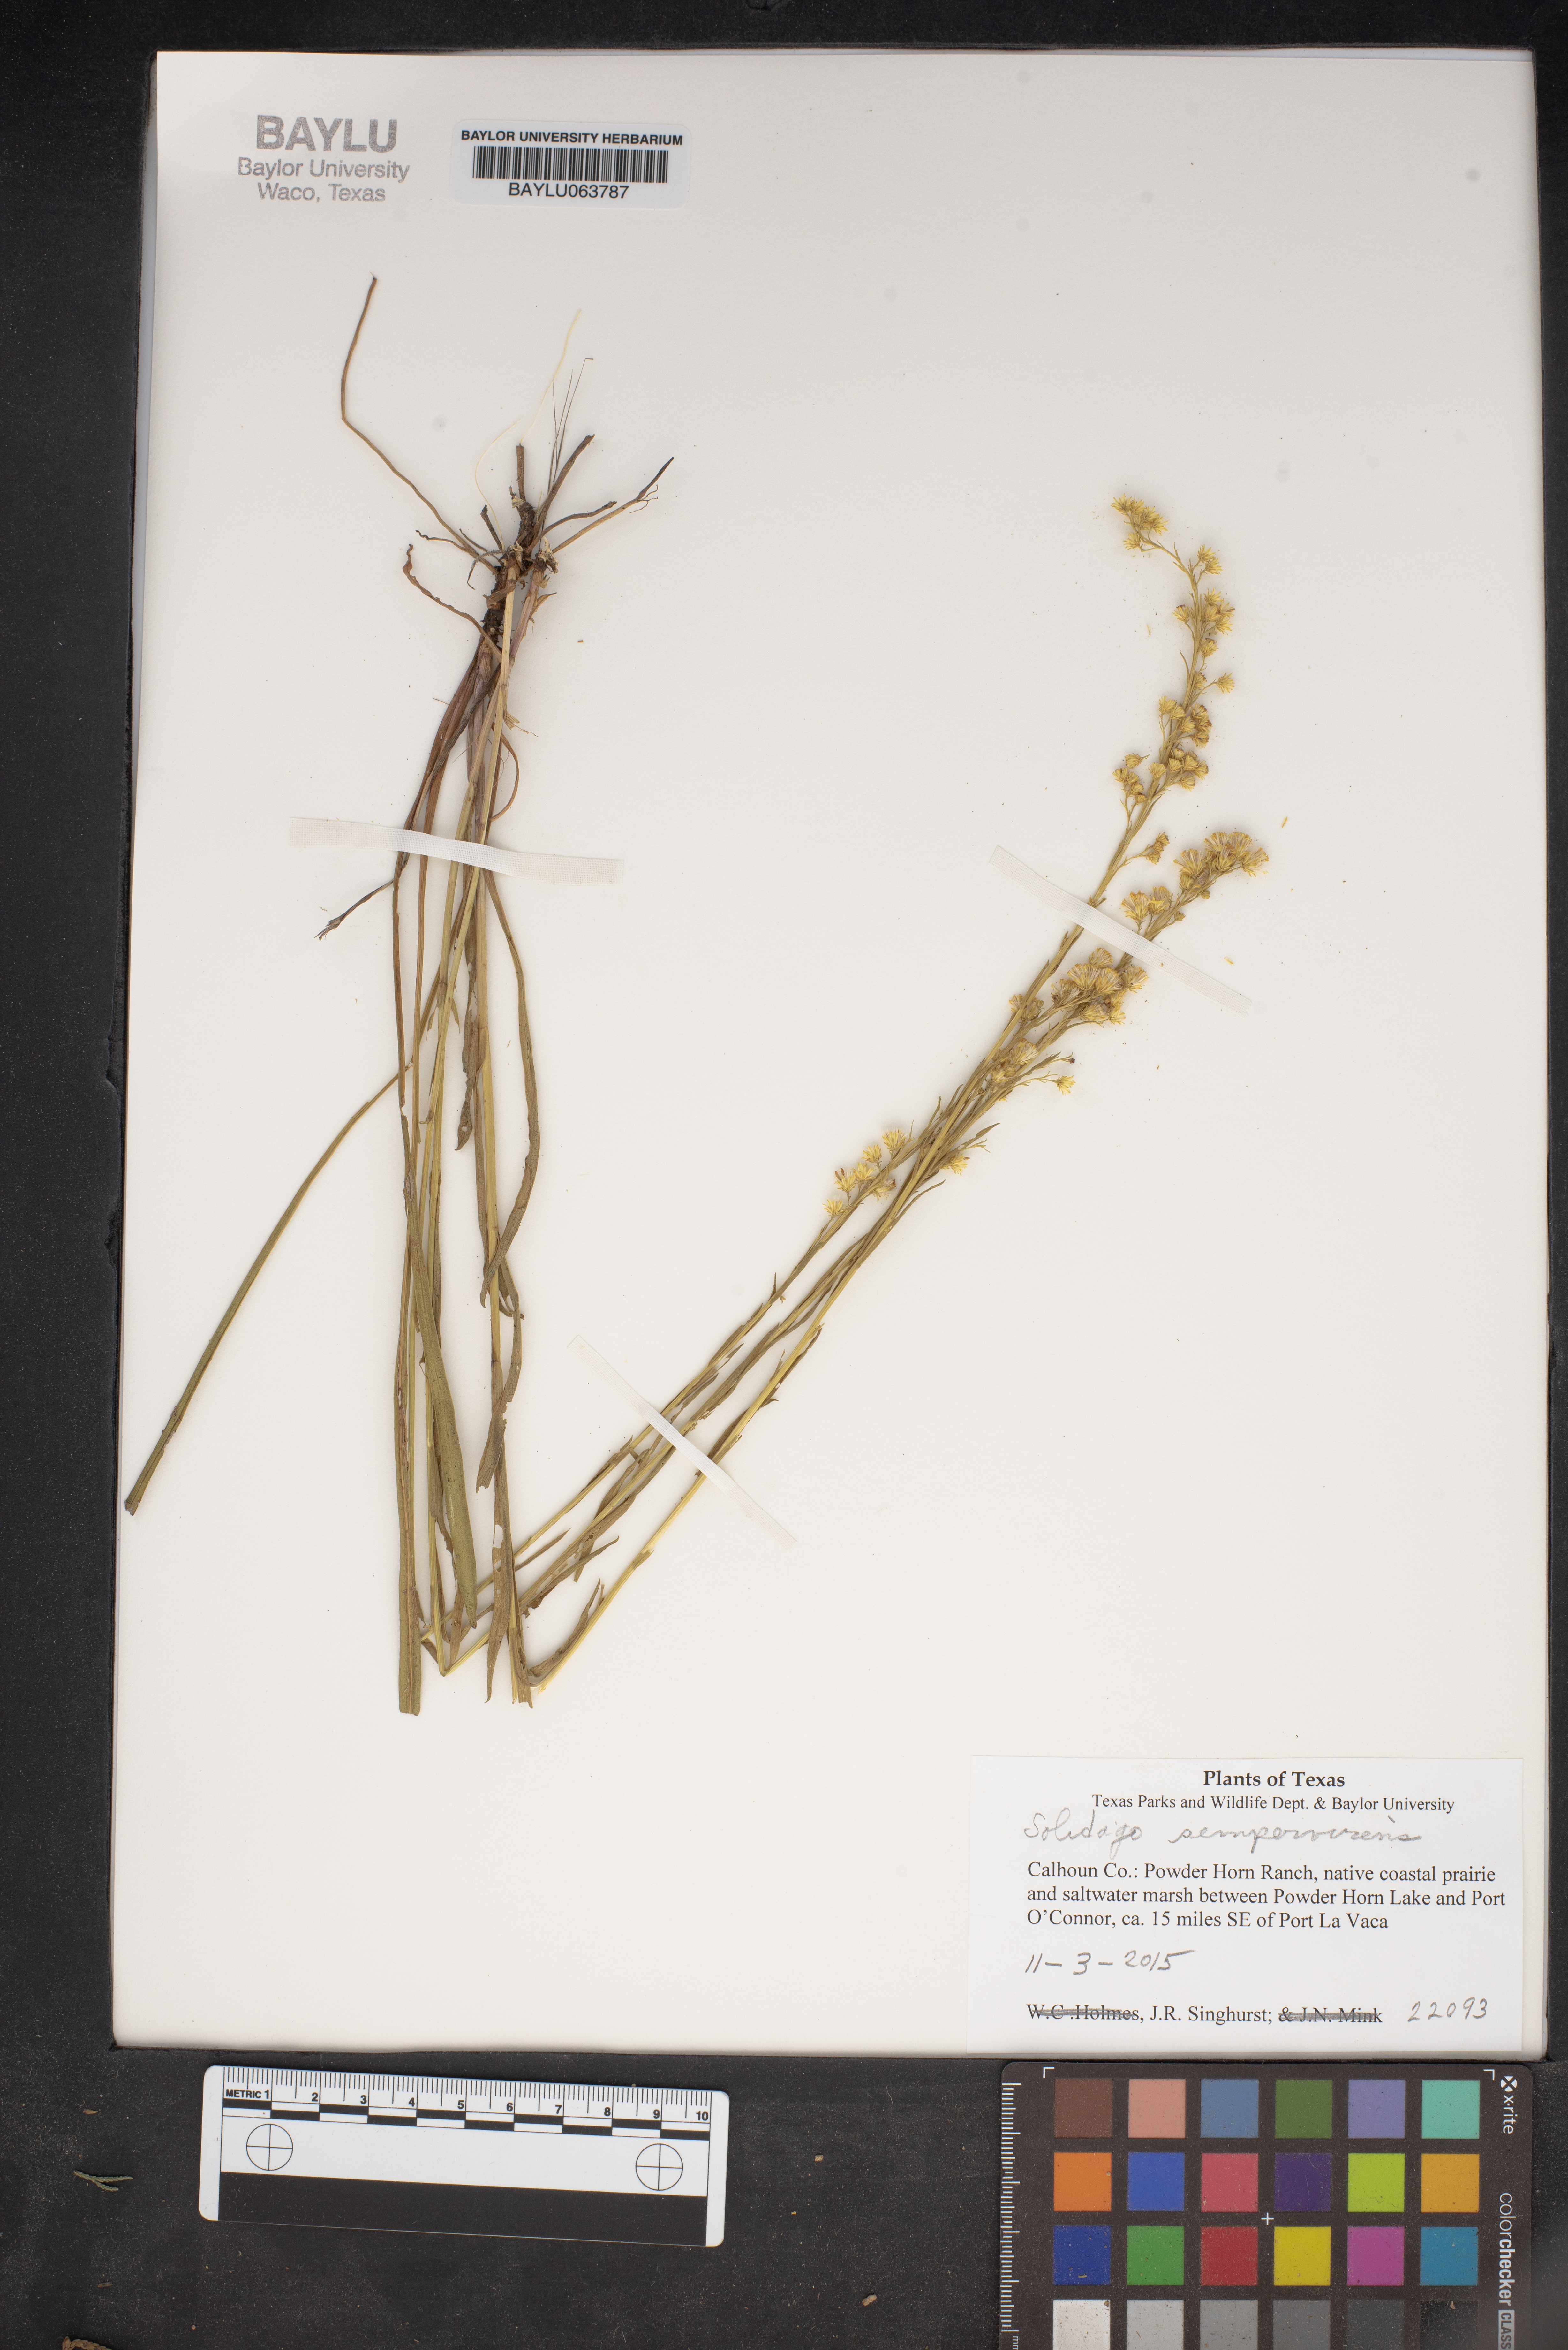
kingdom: Plantae
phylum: Tracheophyta
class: Magnoliopsida
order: Asterales
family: Asteraceae
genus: Solidago
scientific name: Solidago sempervirens
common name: Salt-marsh goldenrod
